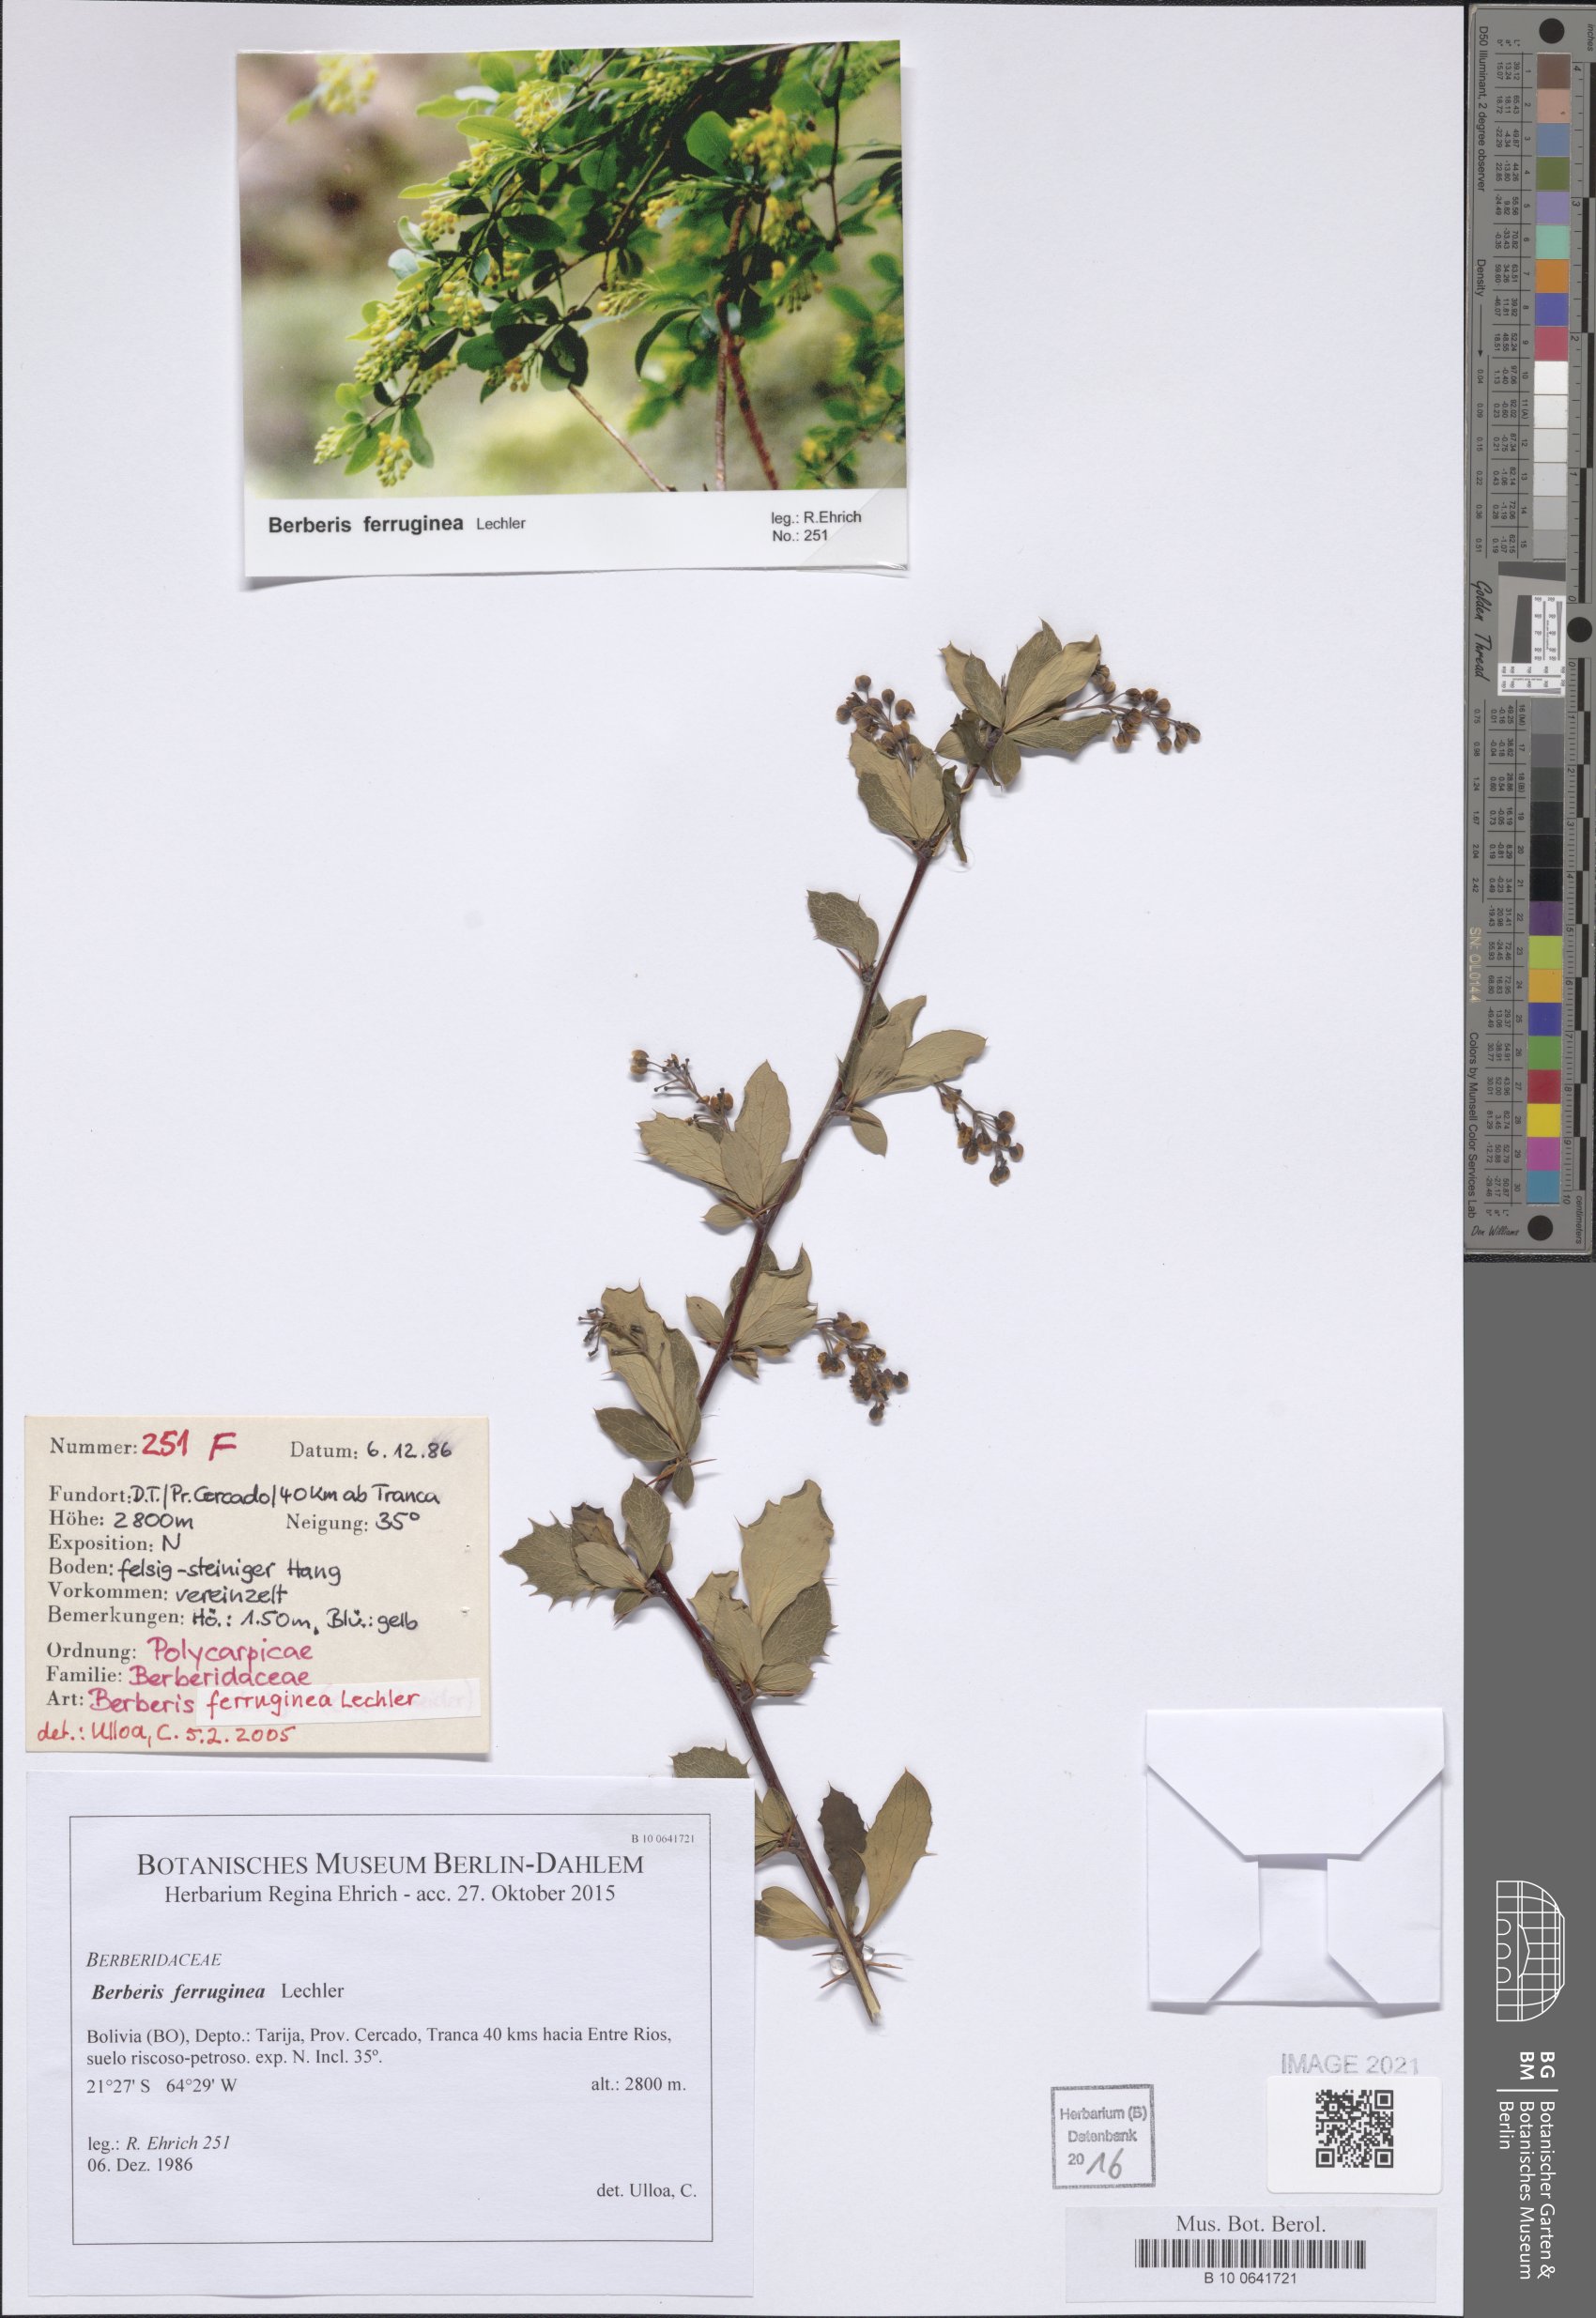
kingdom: Plantae
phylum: Tracheophyta
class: Magnoliopsida
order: Ranunculales
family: Berberidaceae
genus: Berberis
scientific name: Berberis ferruginea
